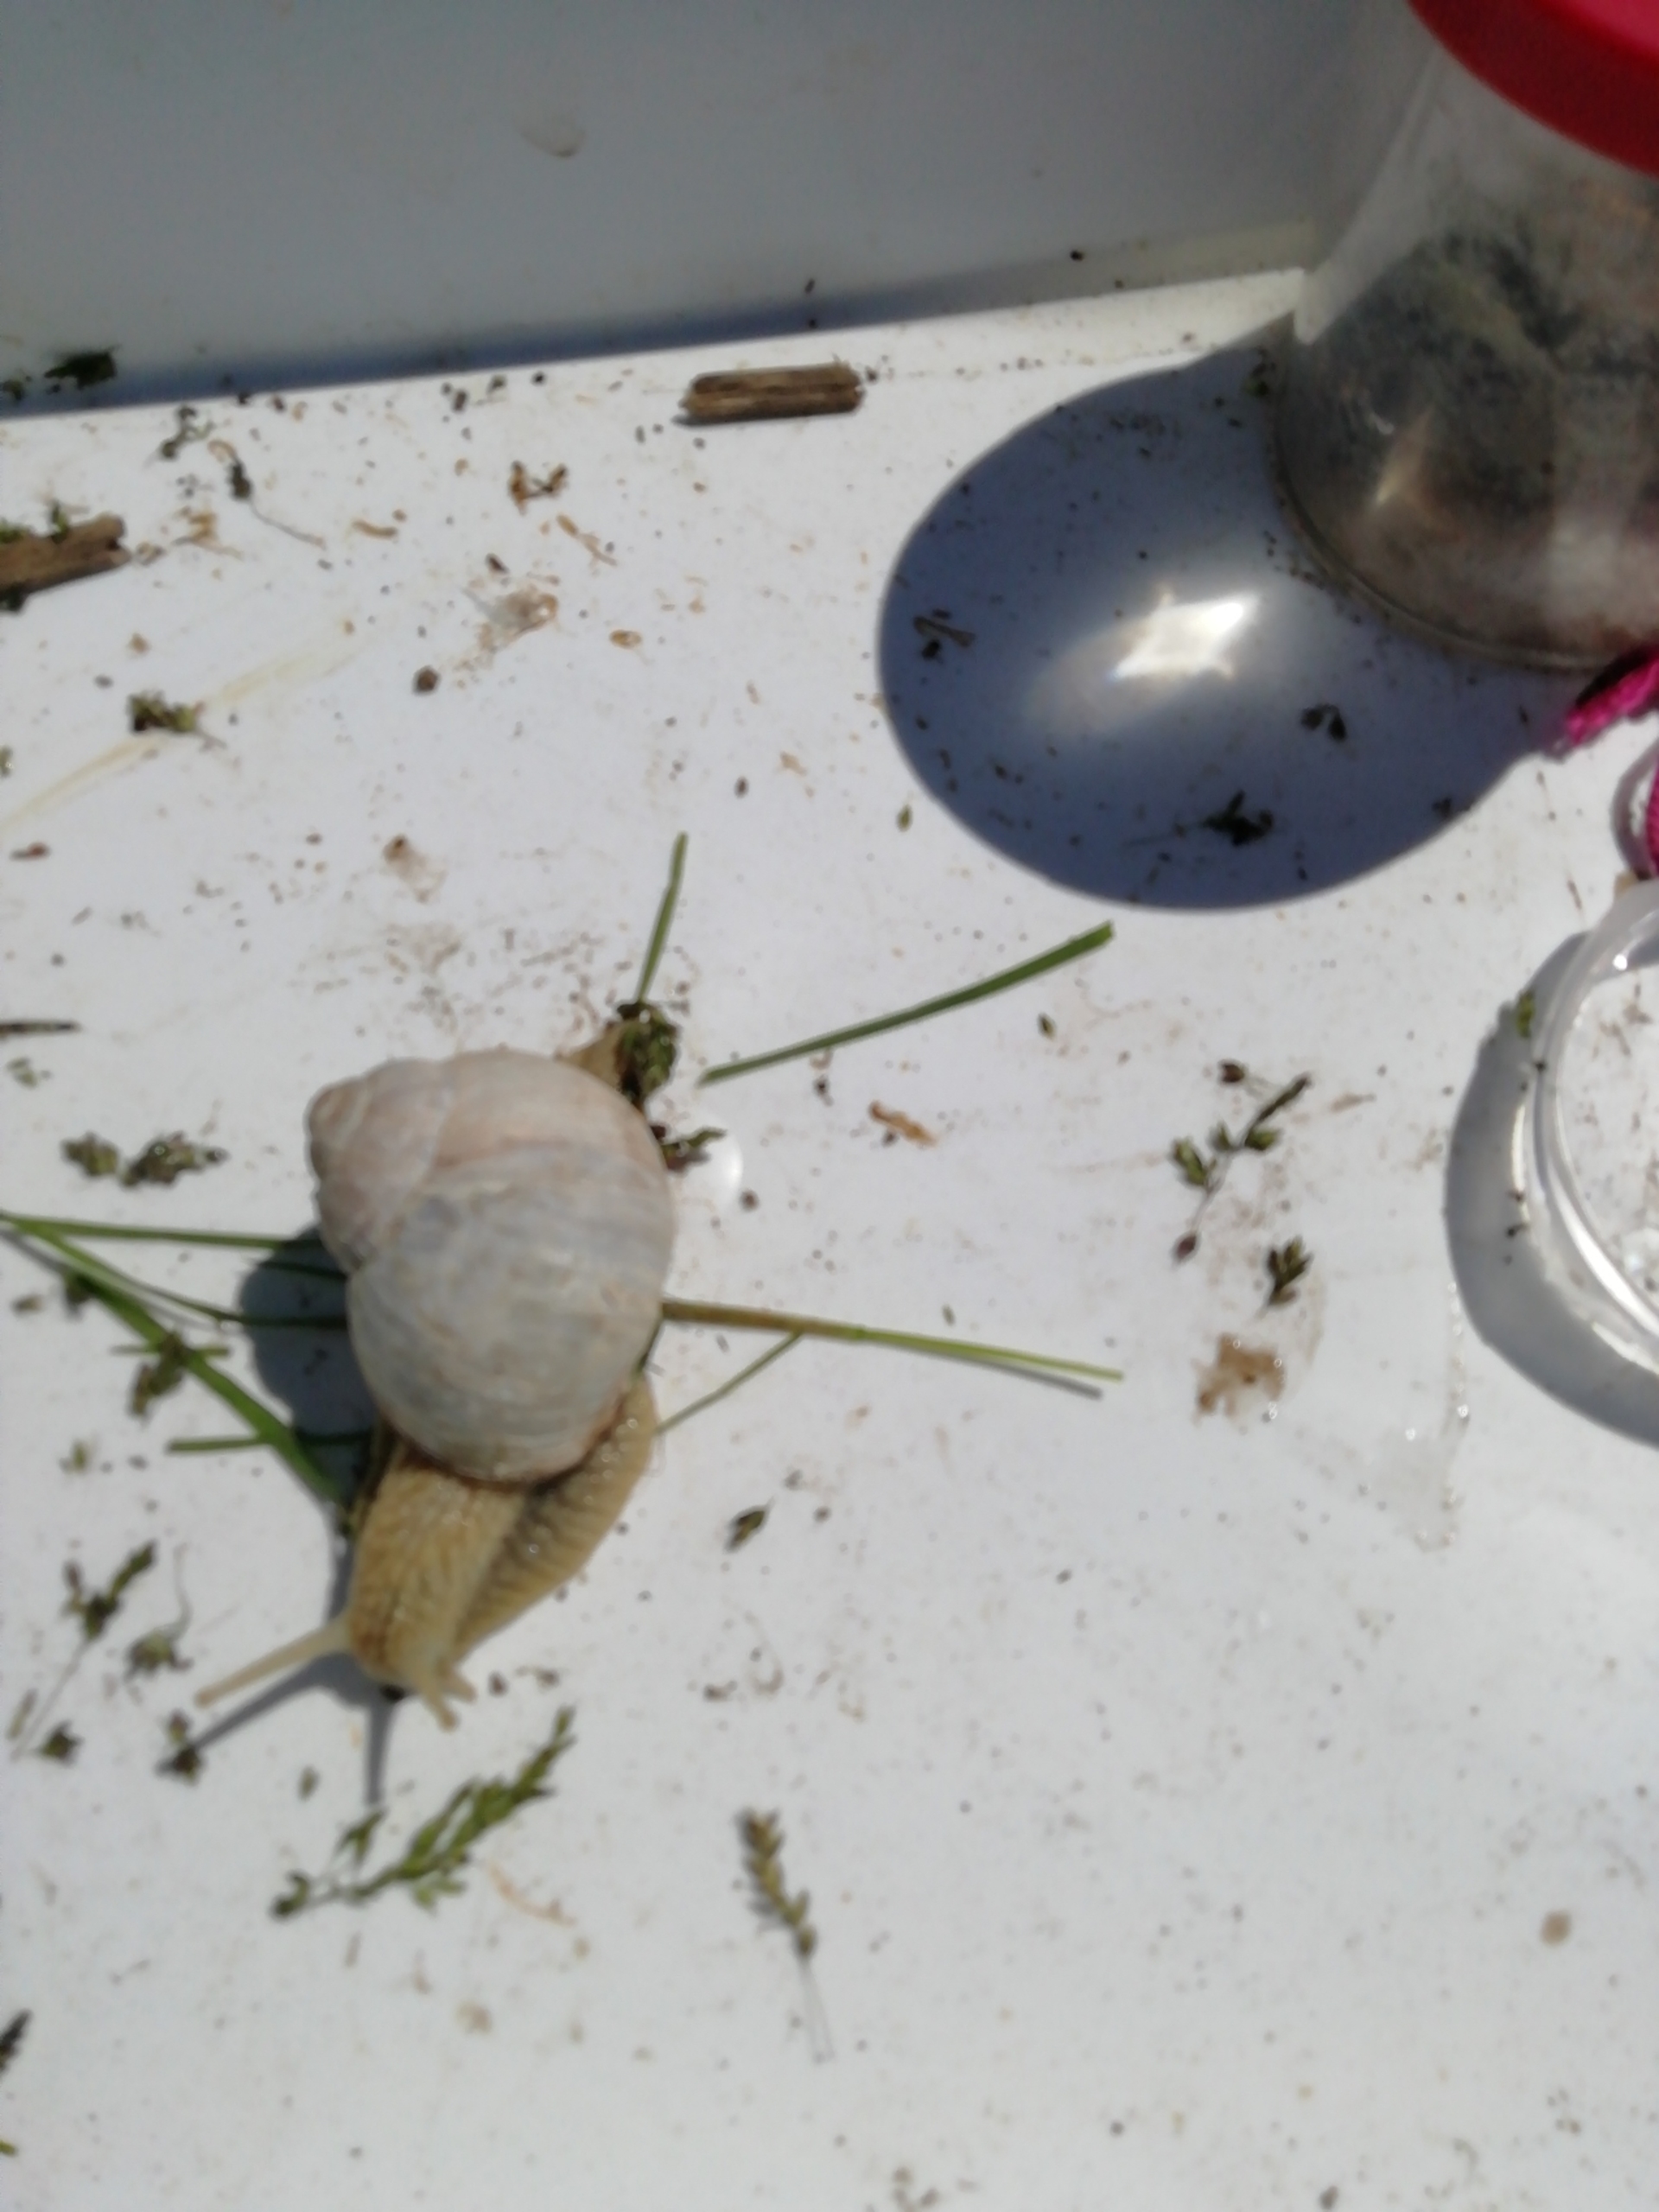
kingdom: Animalia
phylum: Mollusca
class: Gastropoda
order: Stylommatophora
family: Helicidae
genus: Helix
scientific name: Helix pomatia
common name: Vinbjergsnegl
